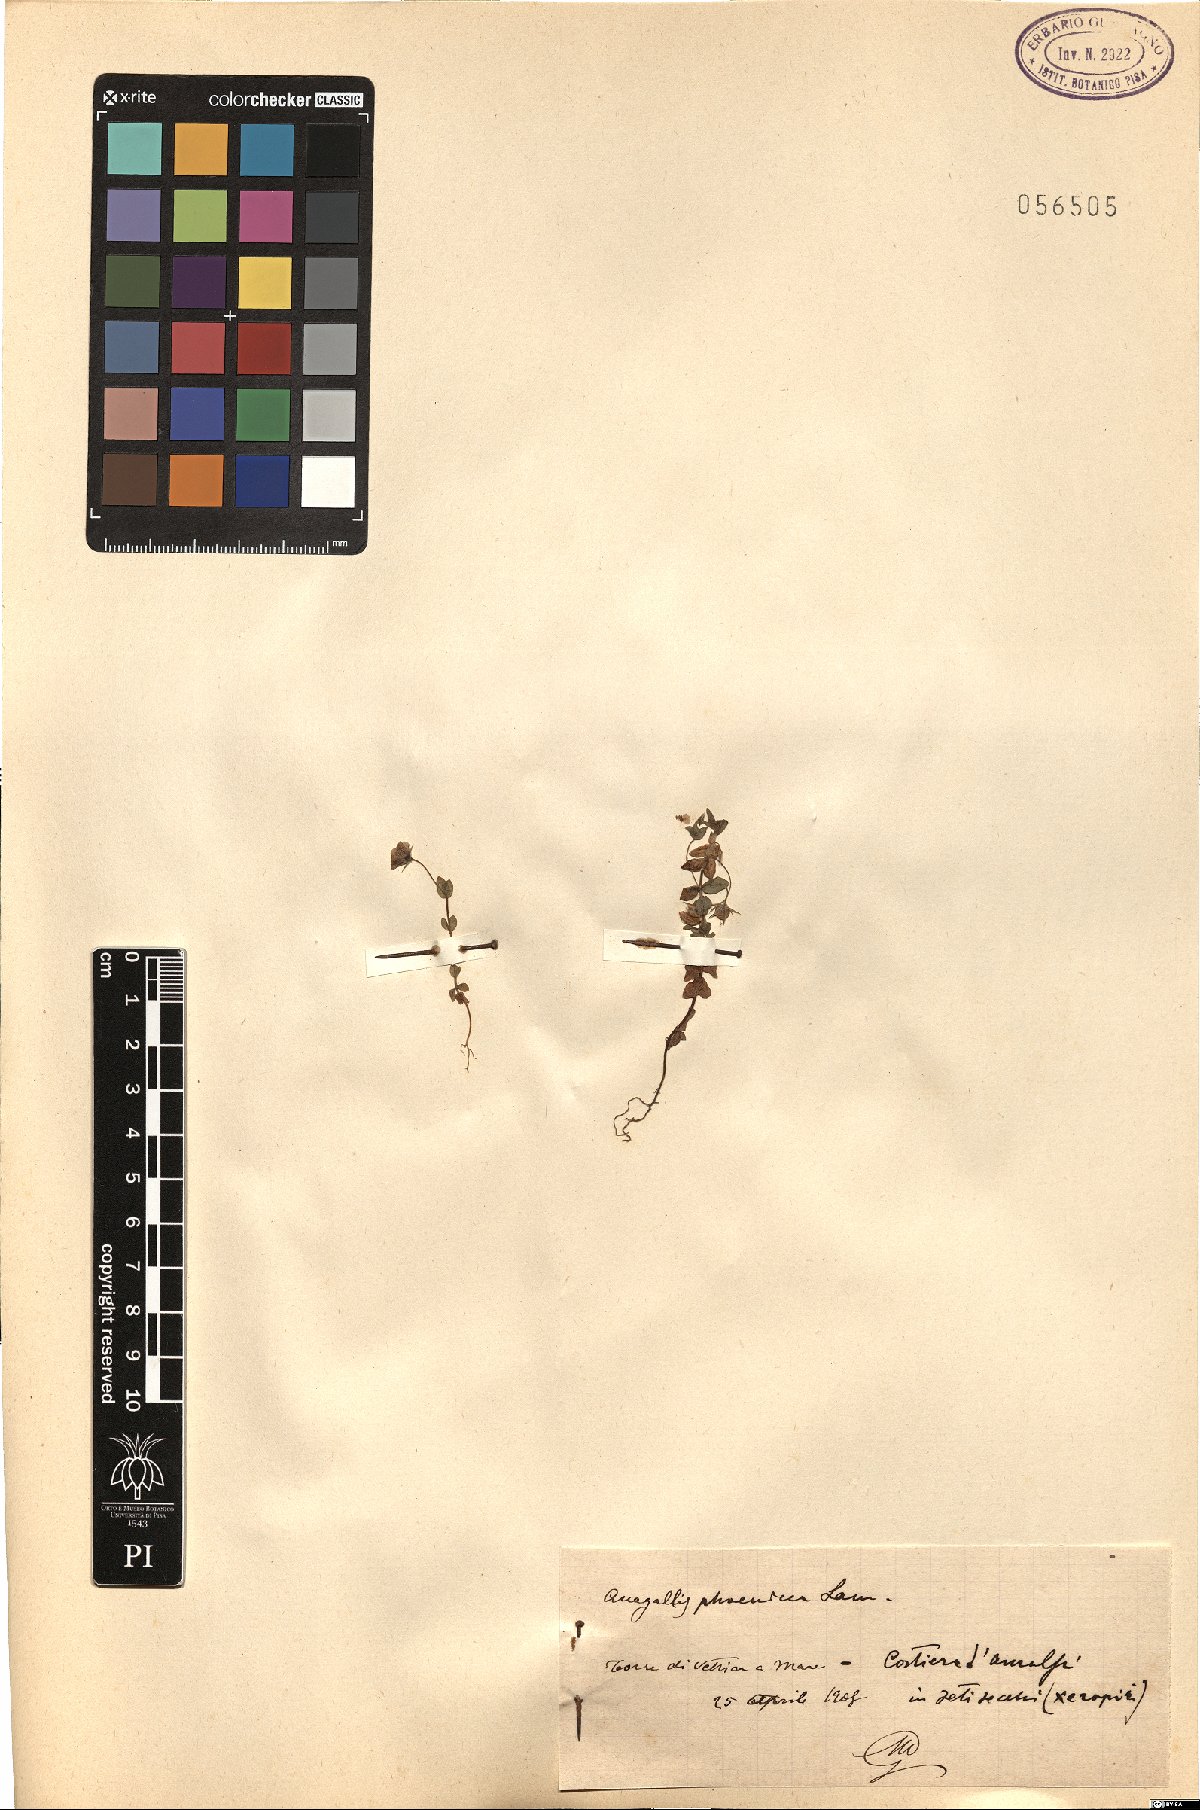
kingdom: Plantae
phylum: Tracheophyta
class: Magnoliopsida
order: Ericales
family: Primulaceae
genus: Lysimachia
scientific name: Lysimachia arvensis
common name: Scarlet pimpernel
